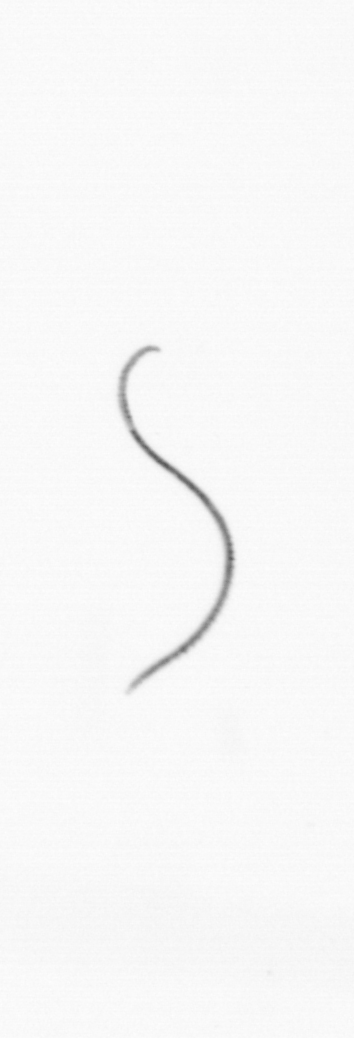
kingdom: Chromista
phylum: Ochrophyta
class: Bacillariophyceae
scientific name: Bacillariophyceae
